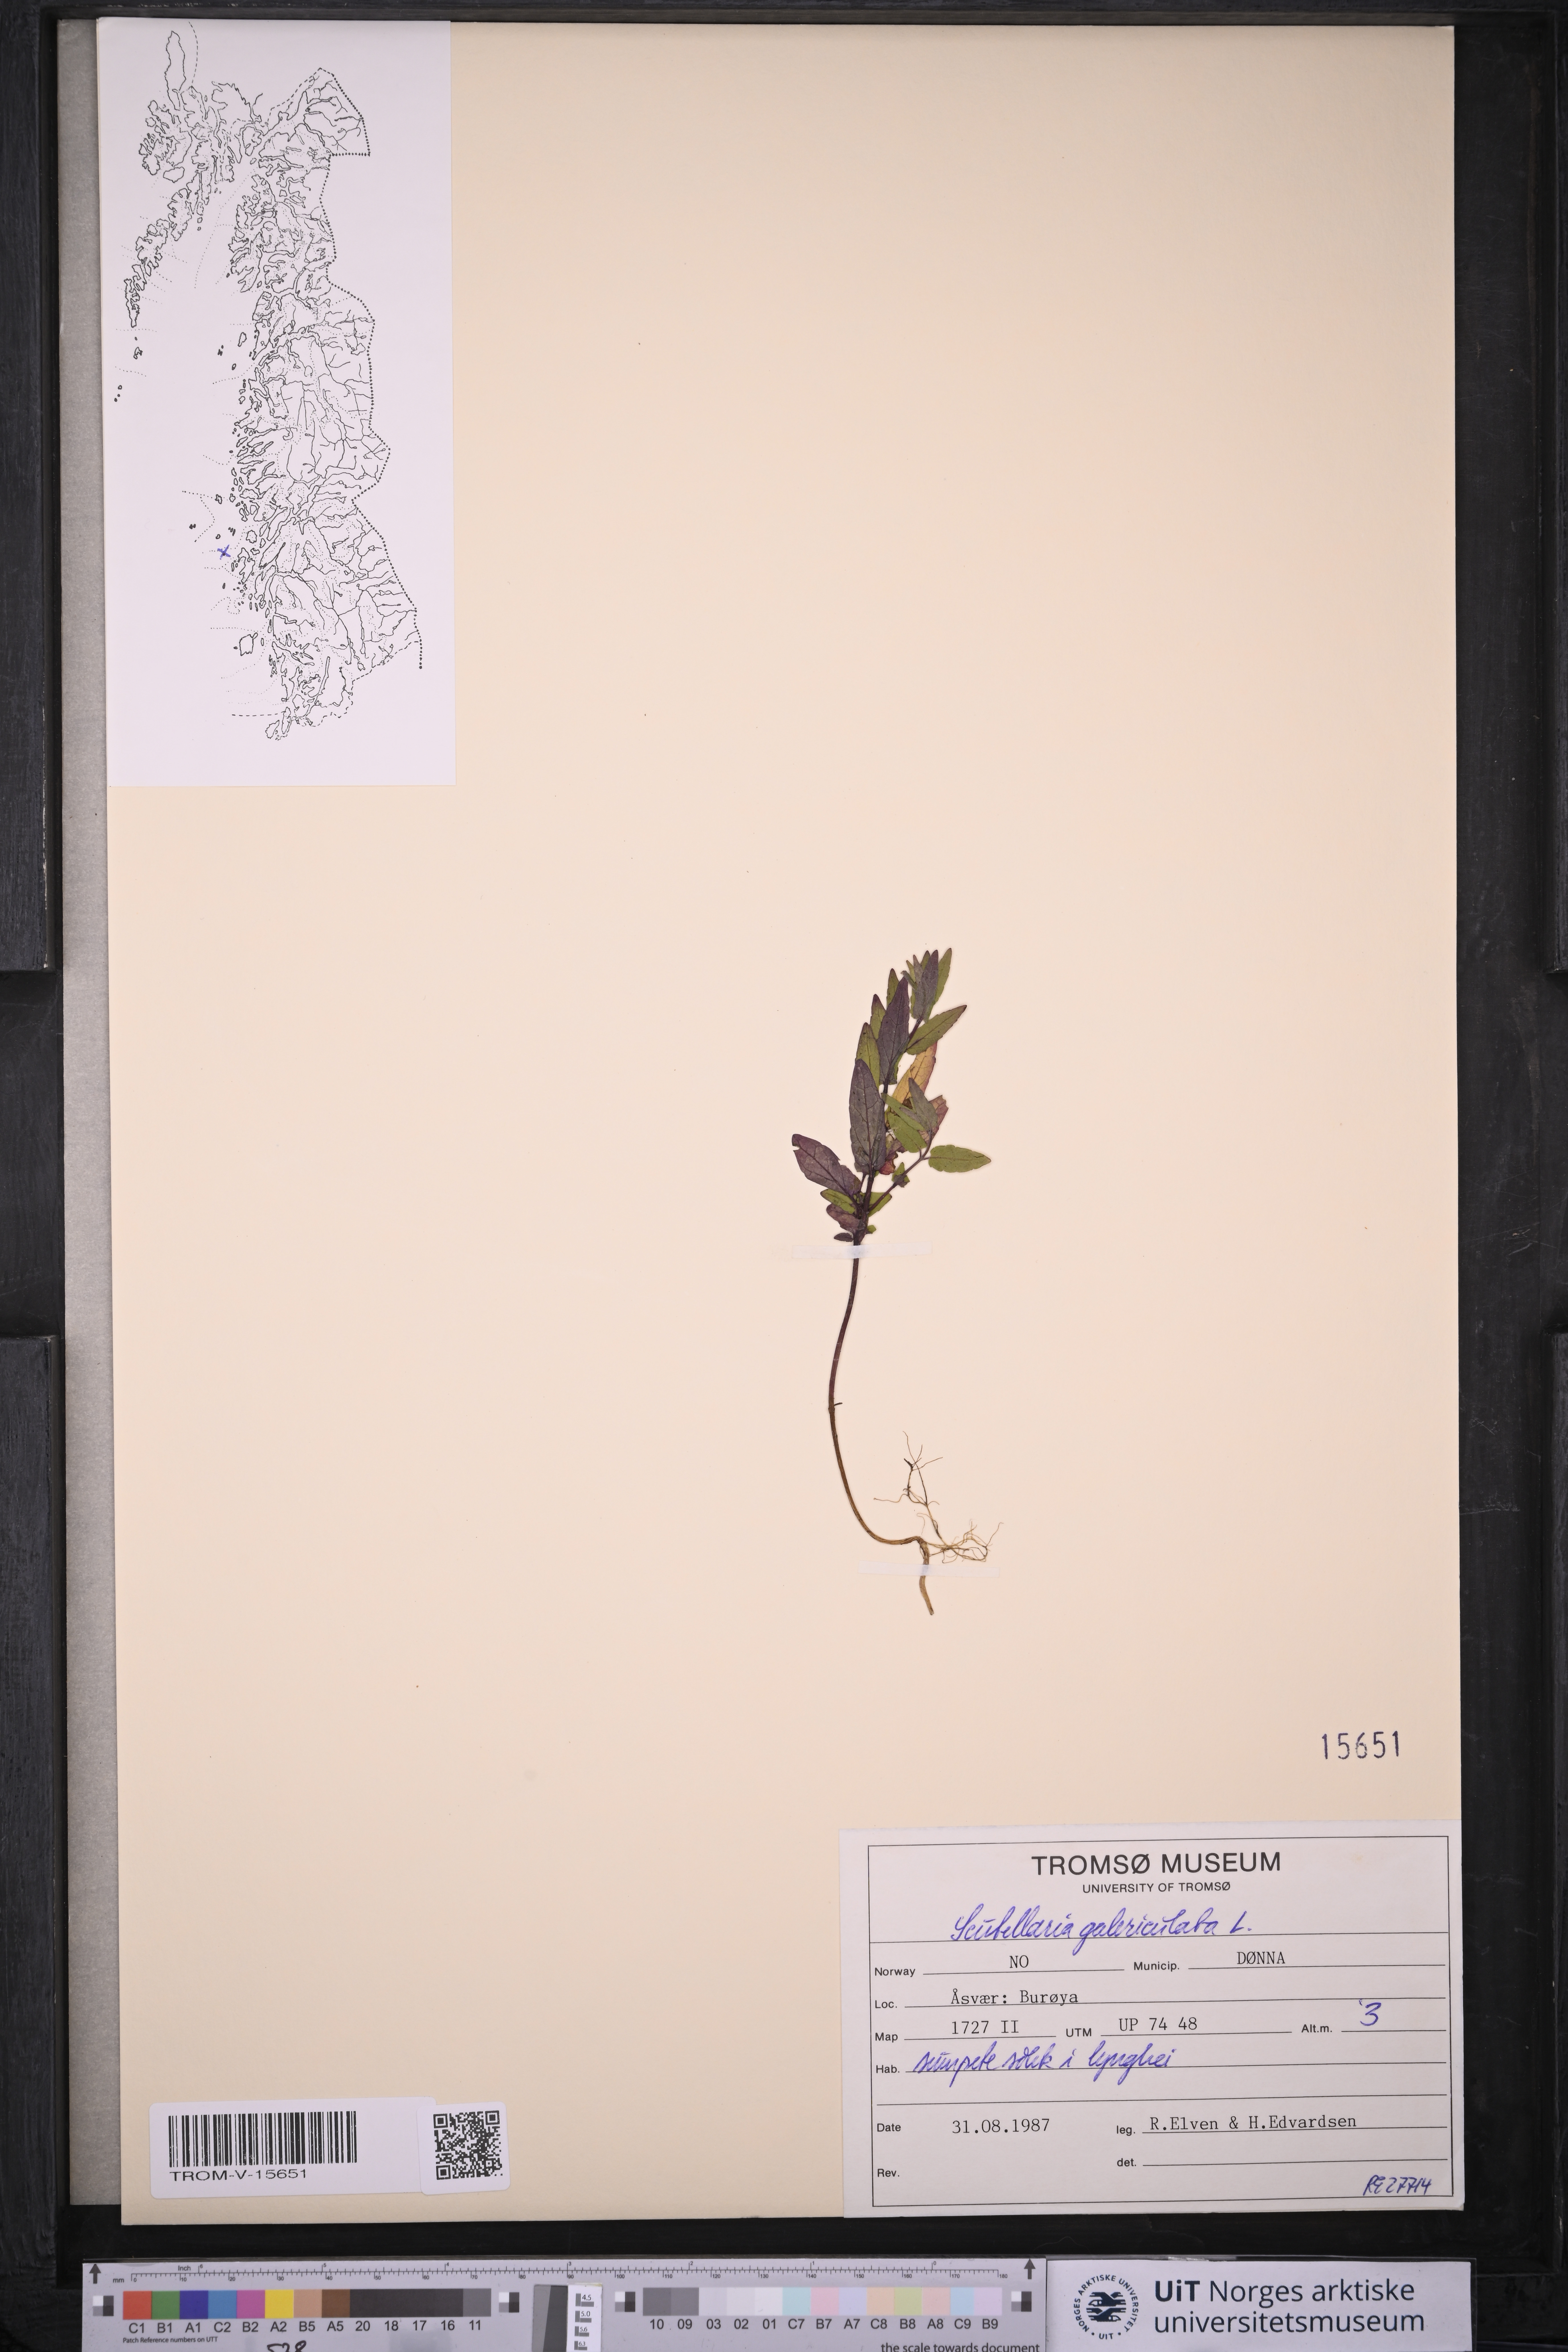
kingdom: Plantae
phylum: Tracheophyta
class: Magnoliopsida
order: Lamiales
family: Lamiaceae
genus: Scutellaria
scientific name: Scutellaria galericulata
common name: Skullcap
